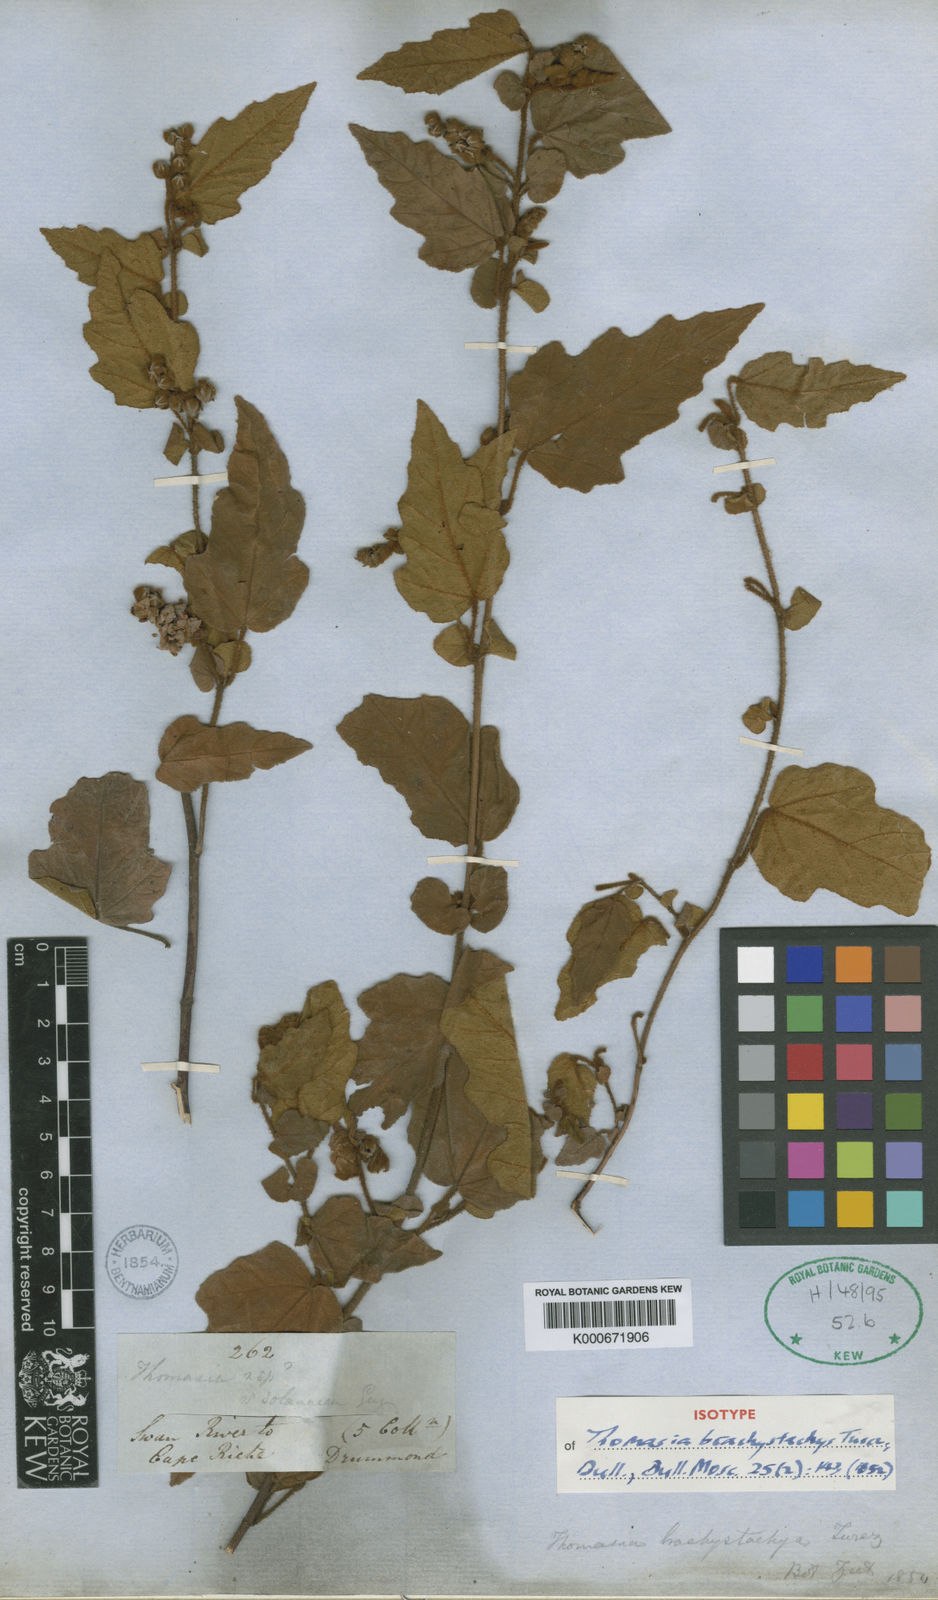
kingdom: Plantae
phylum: Tracheophyta
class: Magnoliopsida
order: Malvales
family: Malvaceae
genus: Thomasia
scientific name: Thomasia brachystachys
